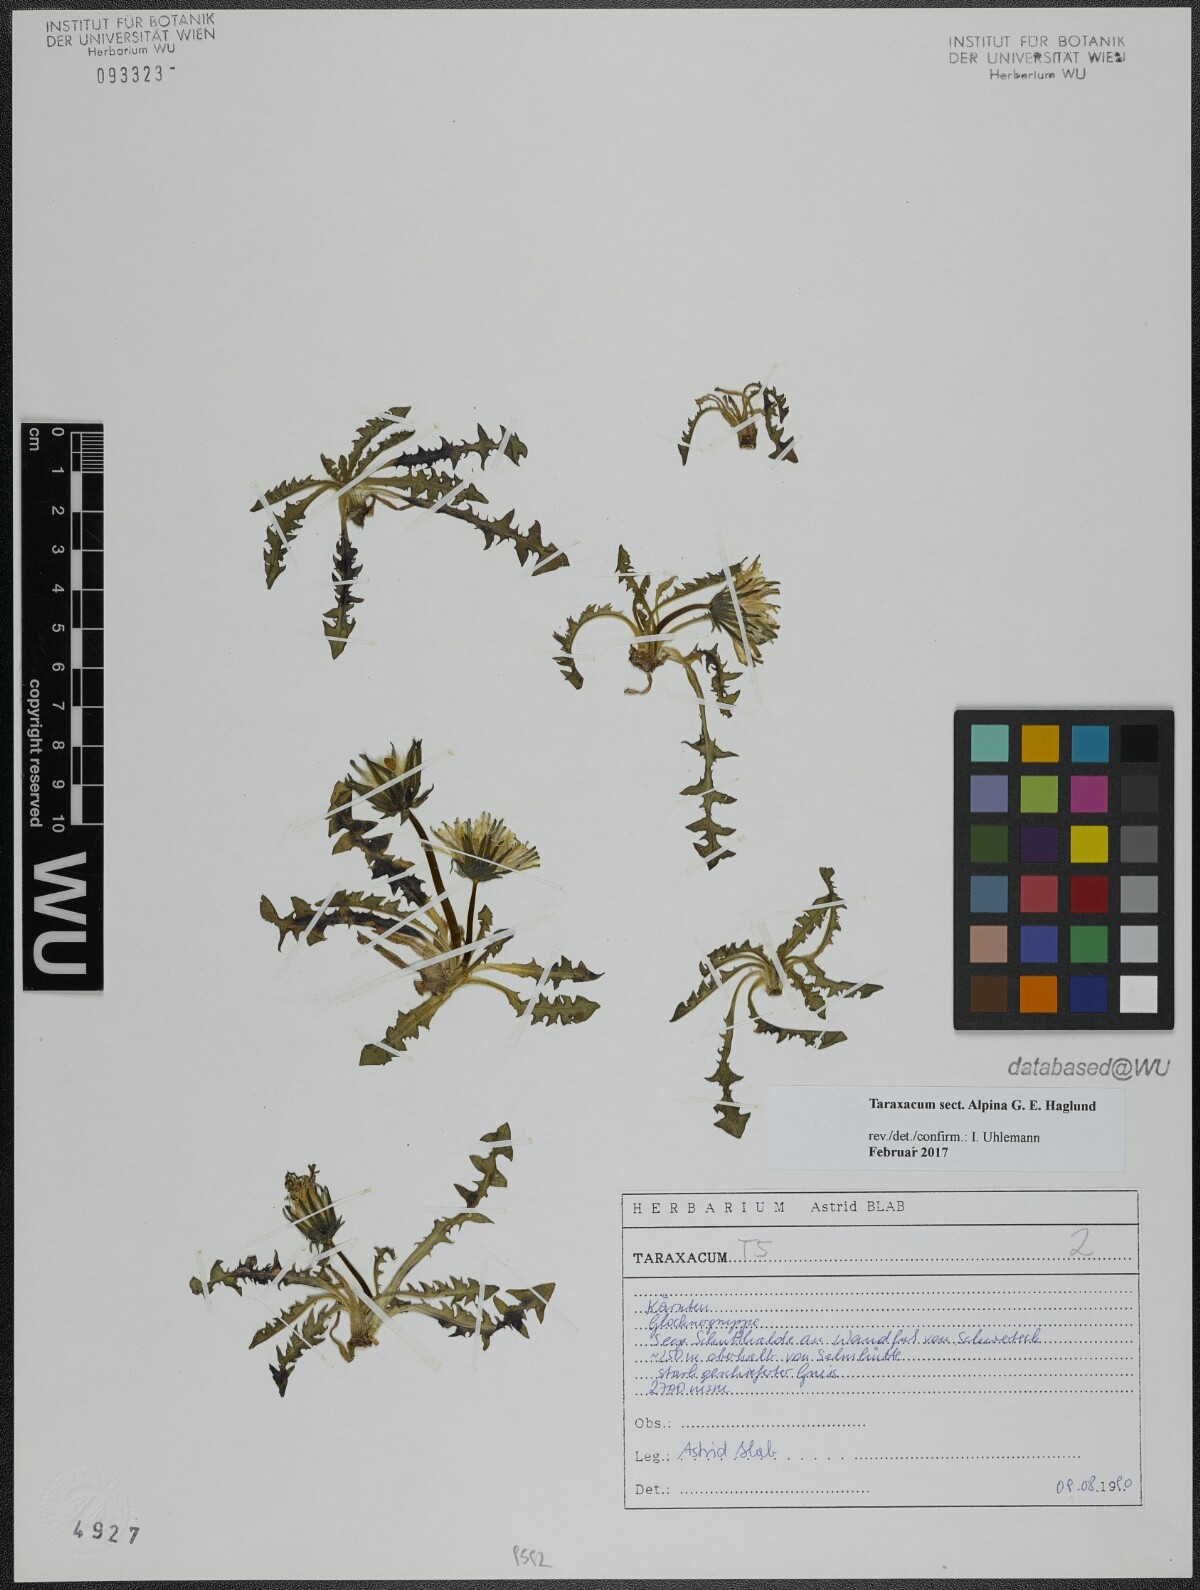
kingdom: Plantae
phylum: Tracheophyta
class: Magnoliopsida
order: Asterales
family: Asteraceae
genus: Taraxacum
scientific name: Taraxacum
